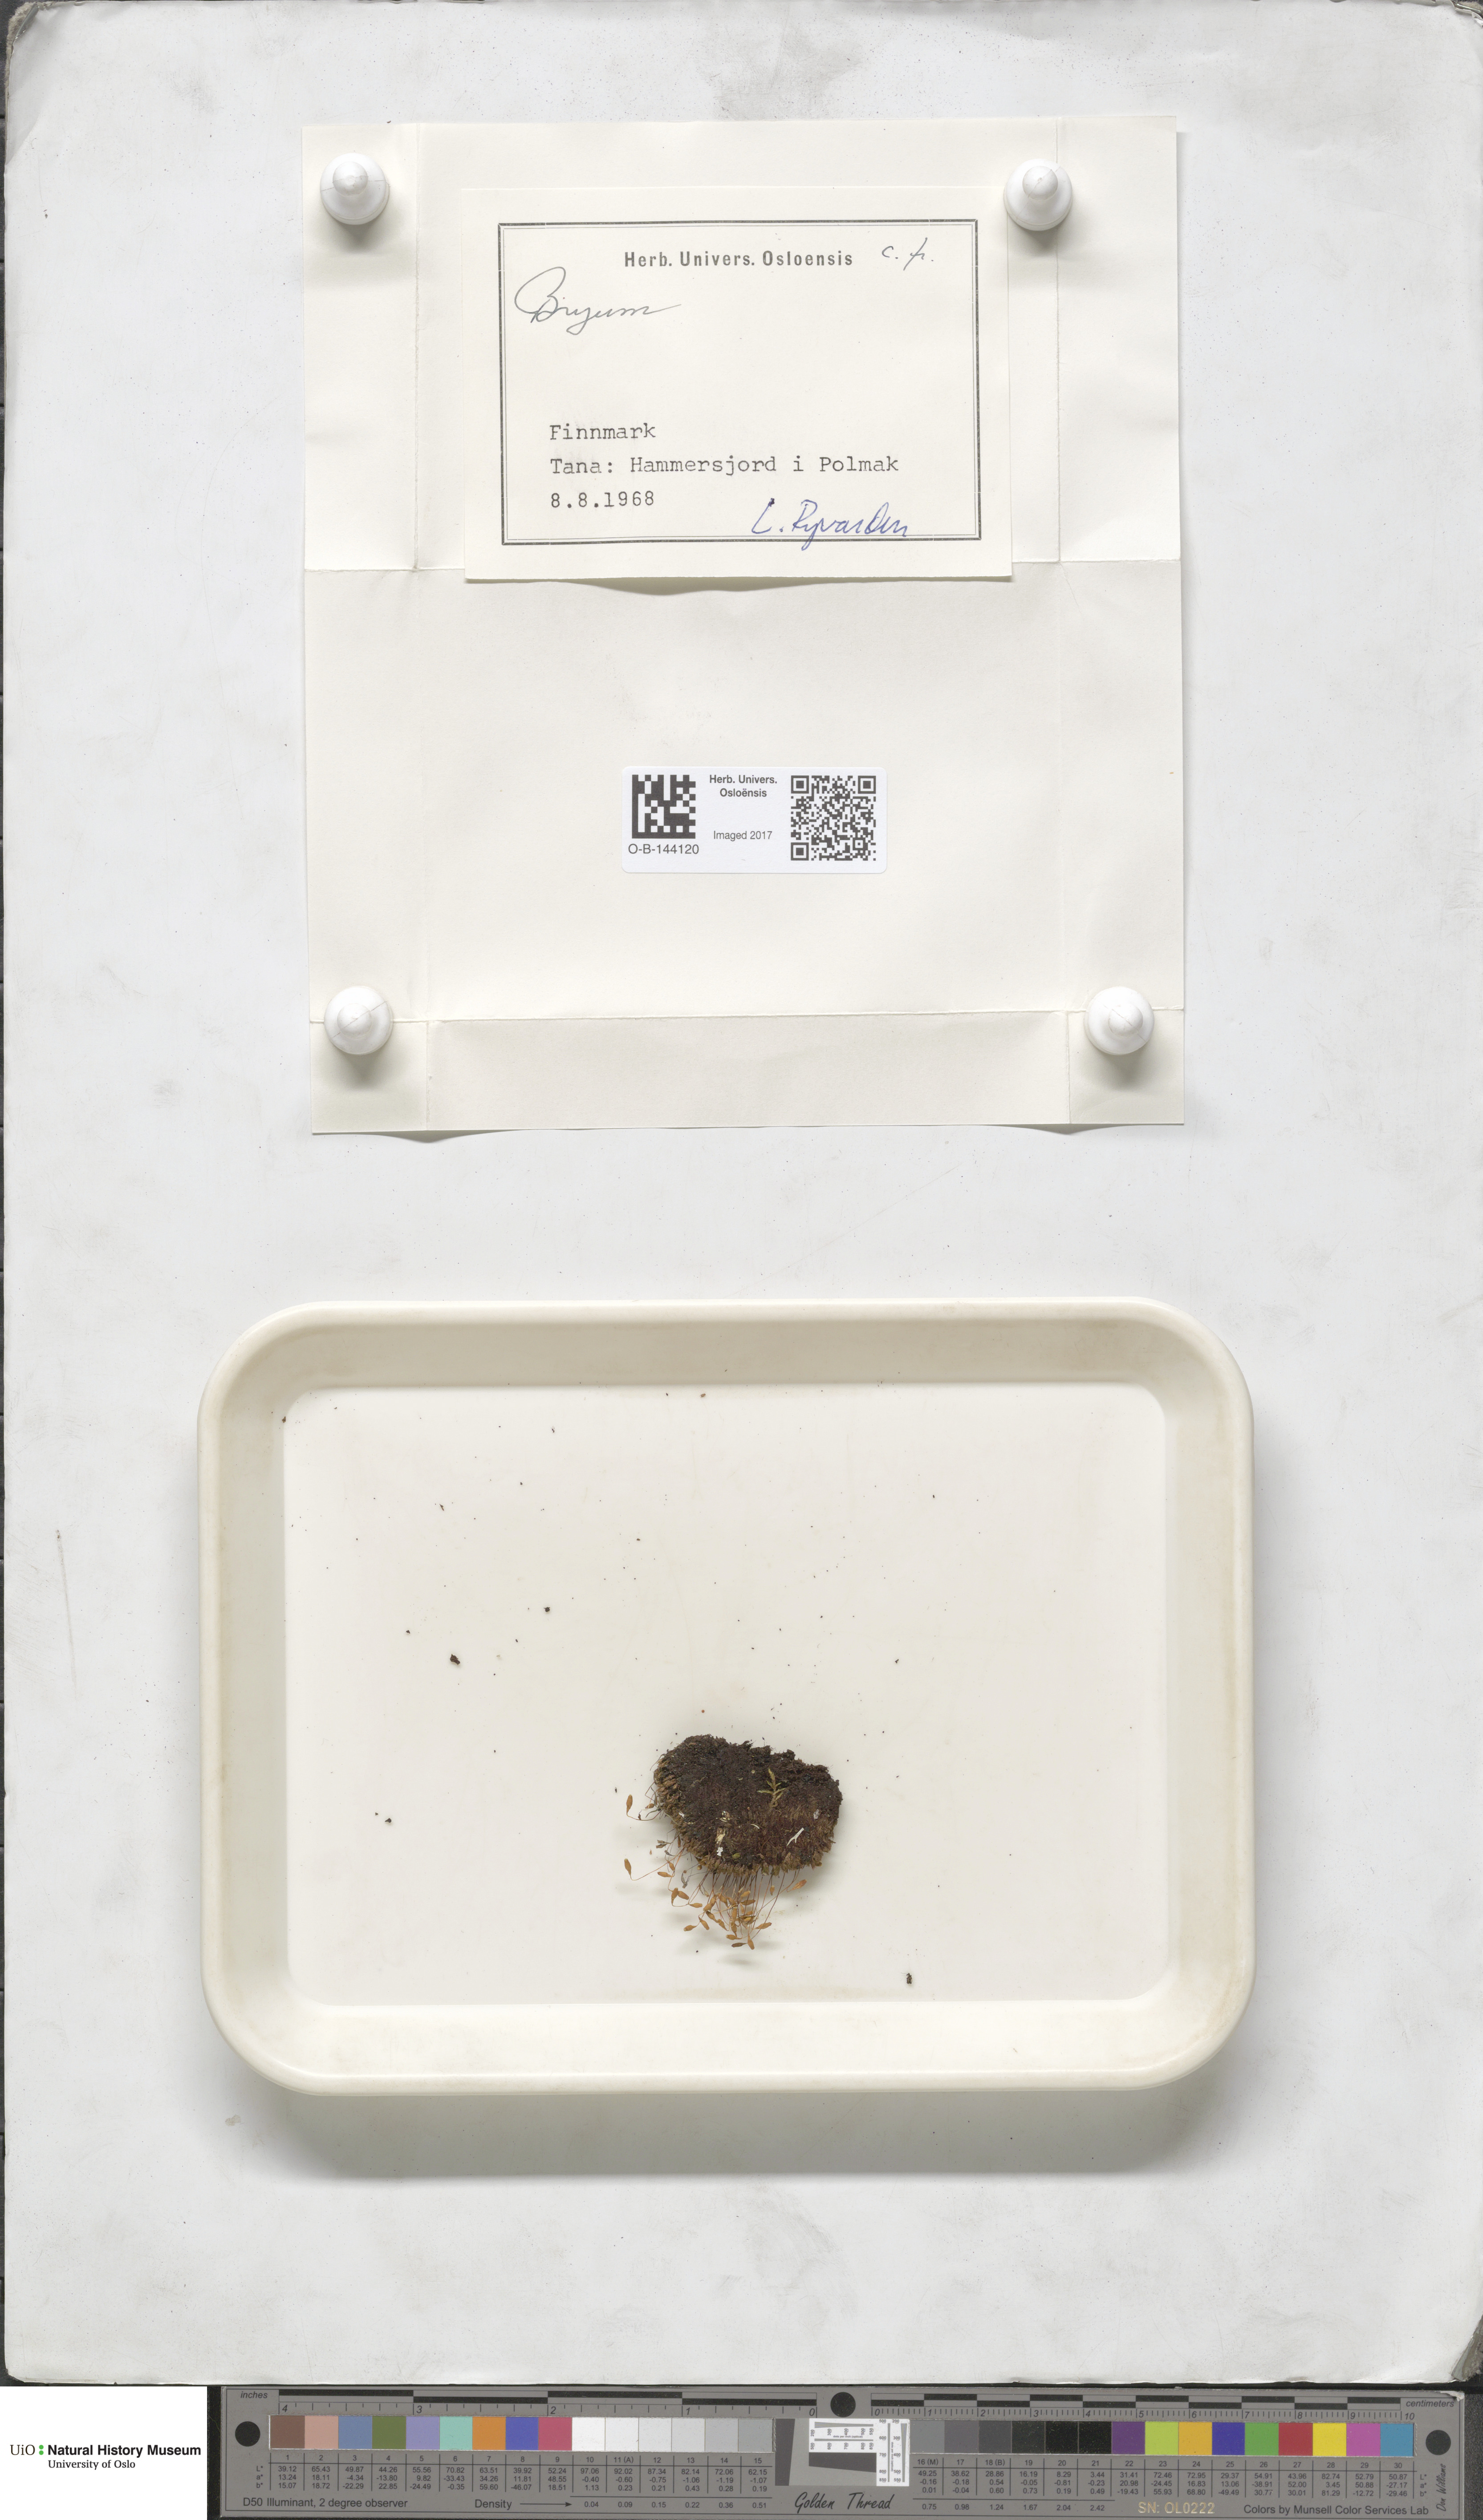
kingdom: Plantae
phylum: Bryophyta
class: Bryopsida
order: Bryales
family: Bryaceae
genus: Bryum
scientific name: Bryum
